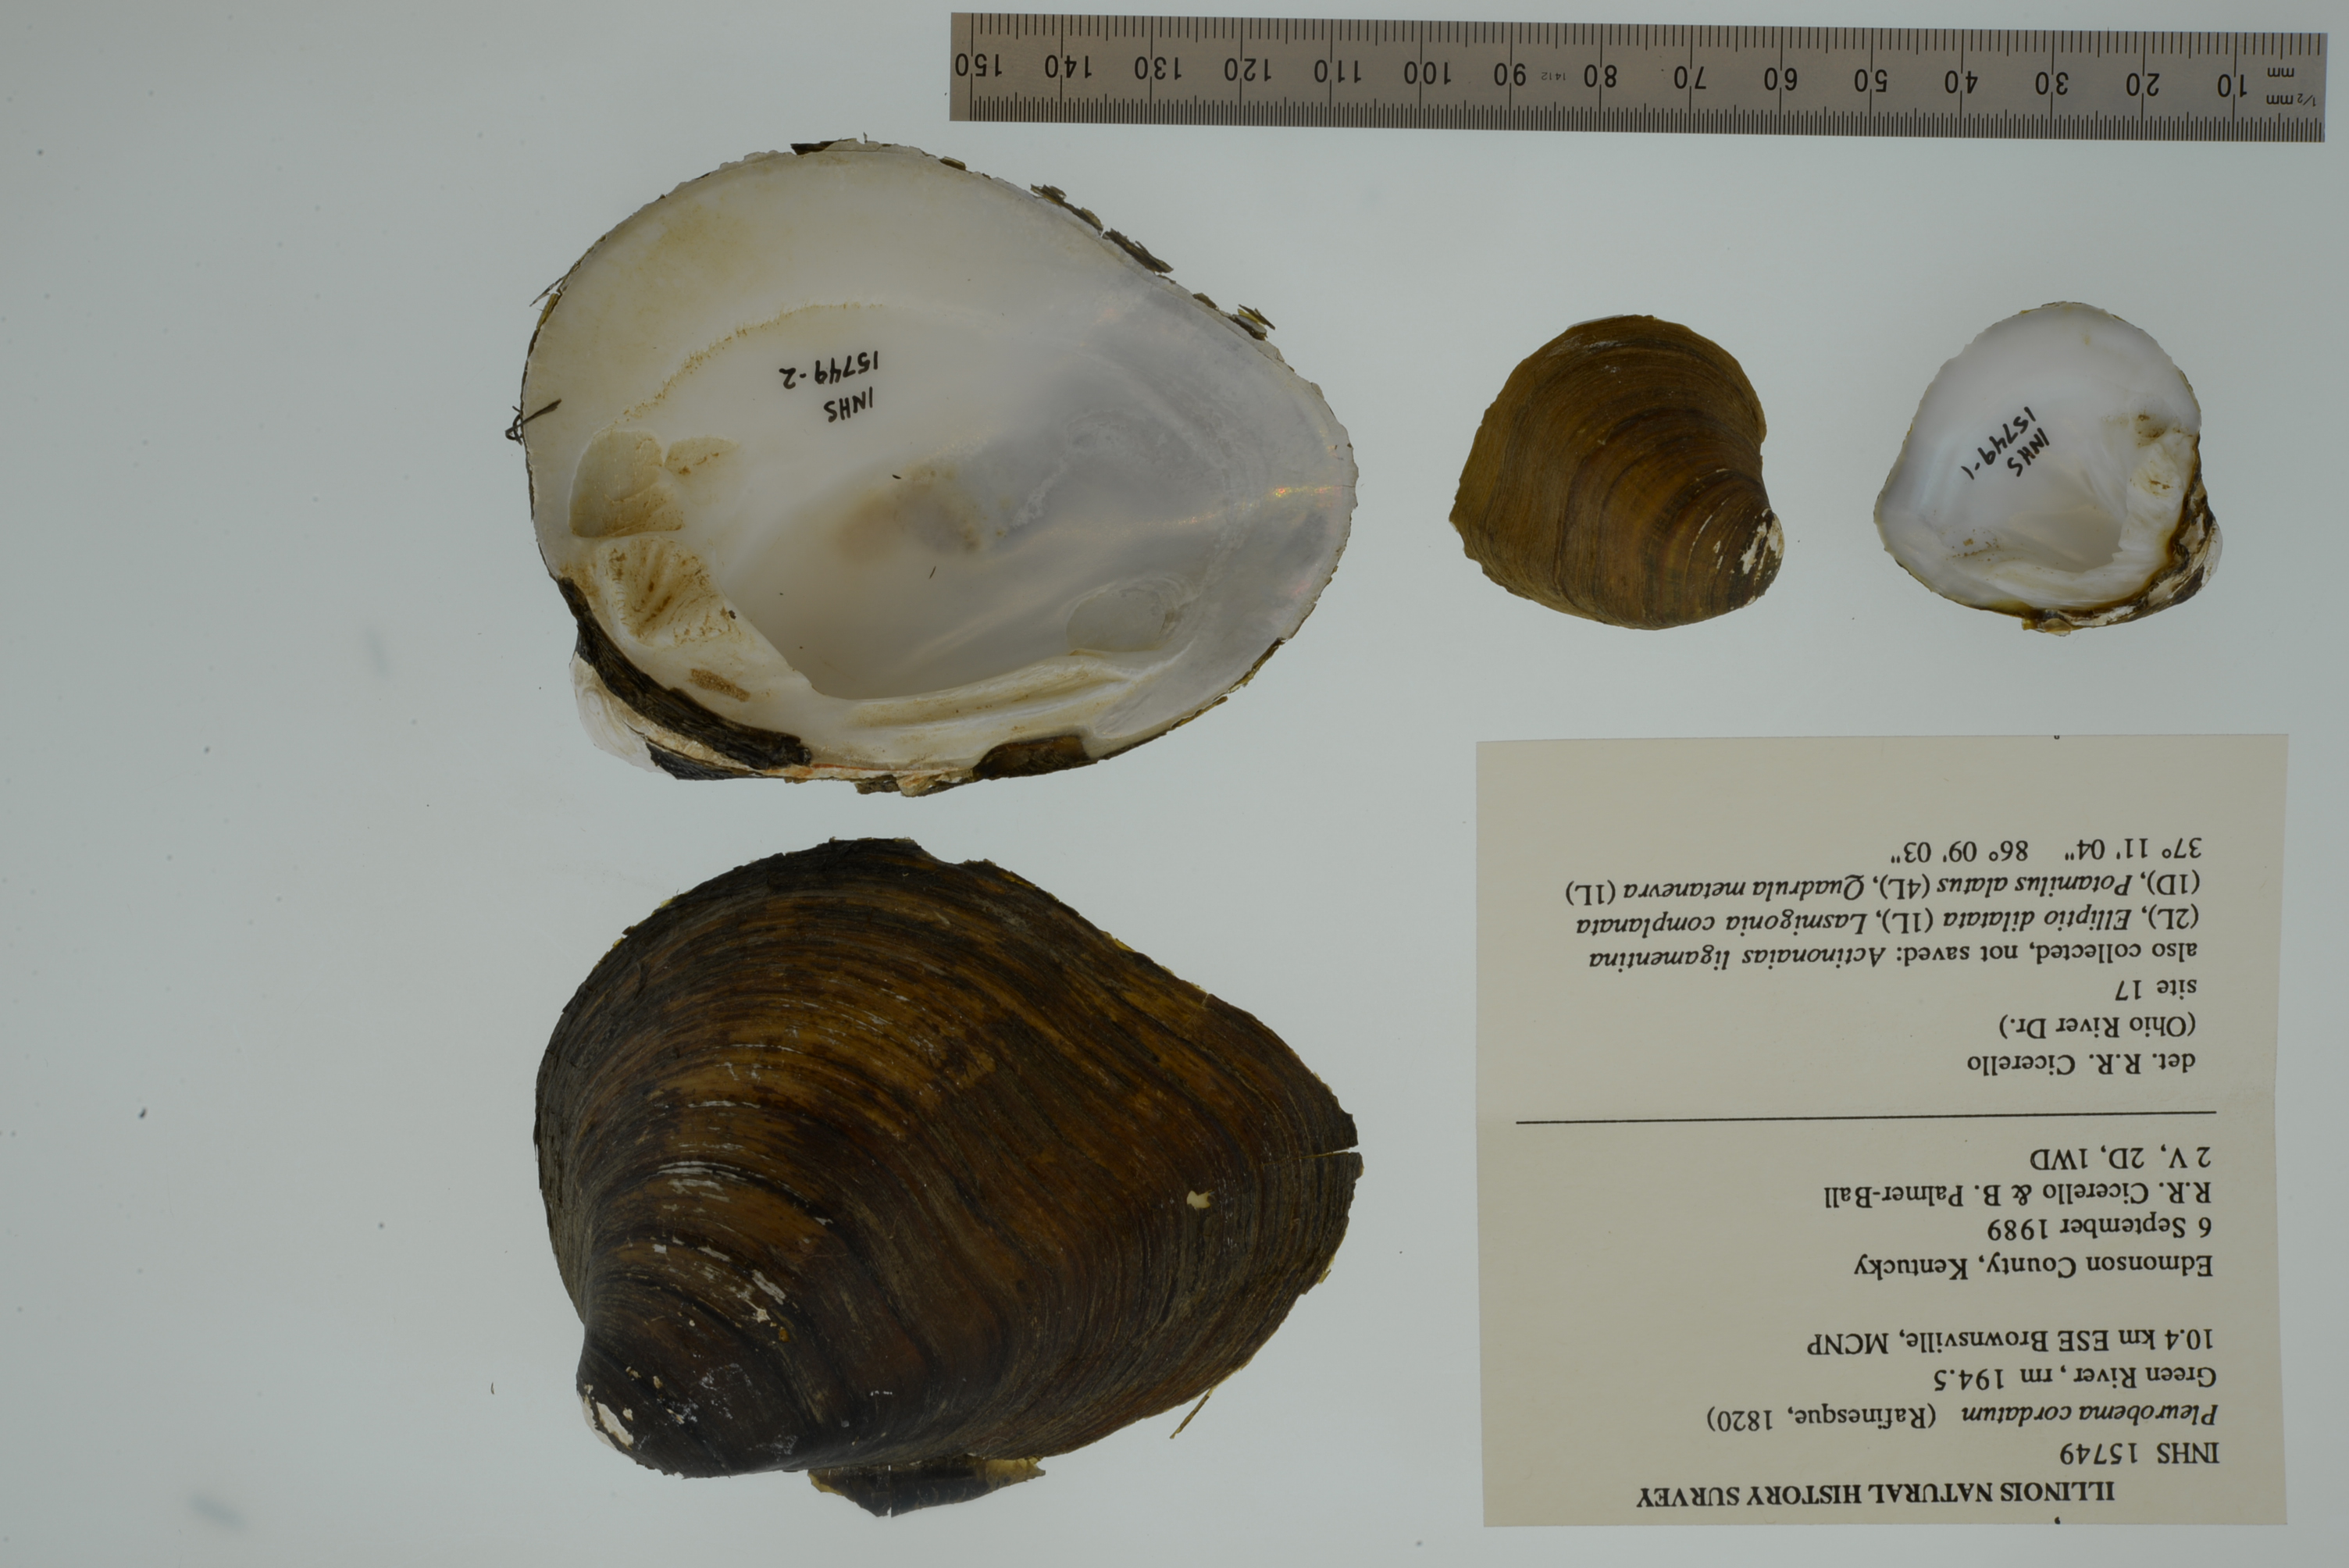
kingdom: Animalia
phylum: Mollusca
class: Bivalvia
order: Unionida
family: Unionidae
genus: Pleurobema
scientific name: Pleurobema cordatum
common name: Ohio pigtoe
